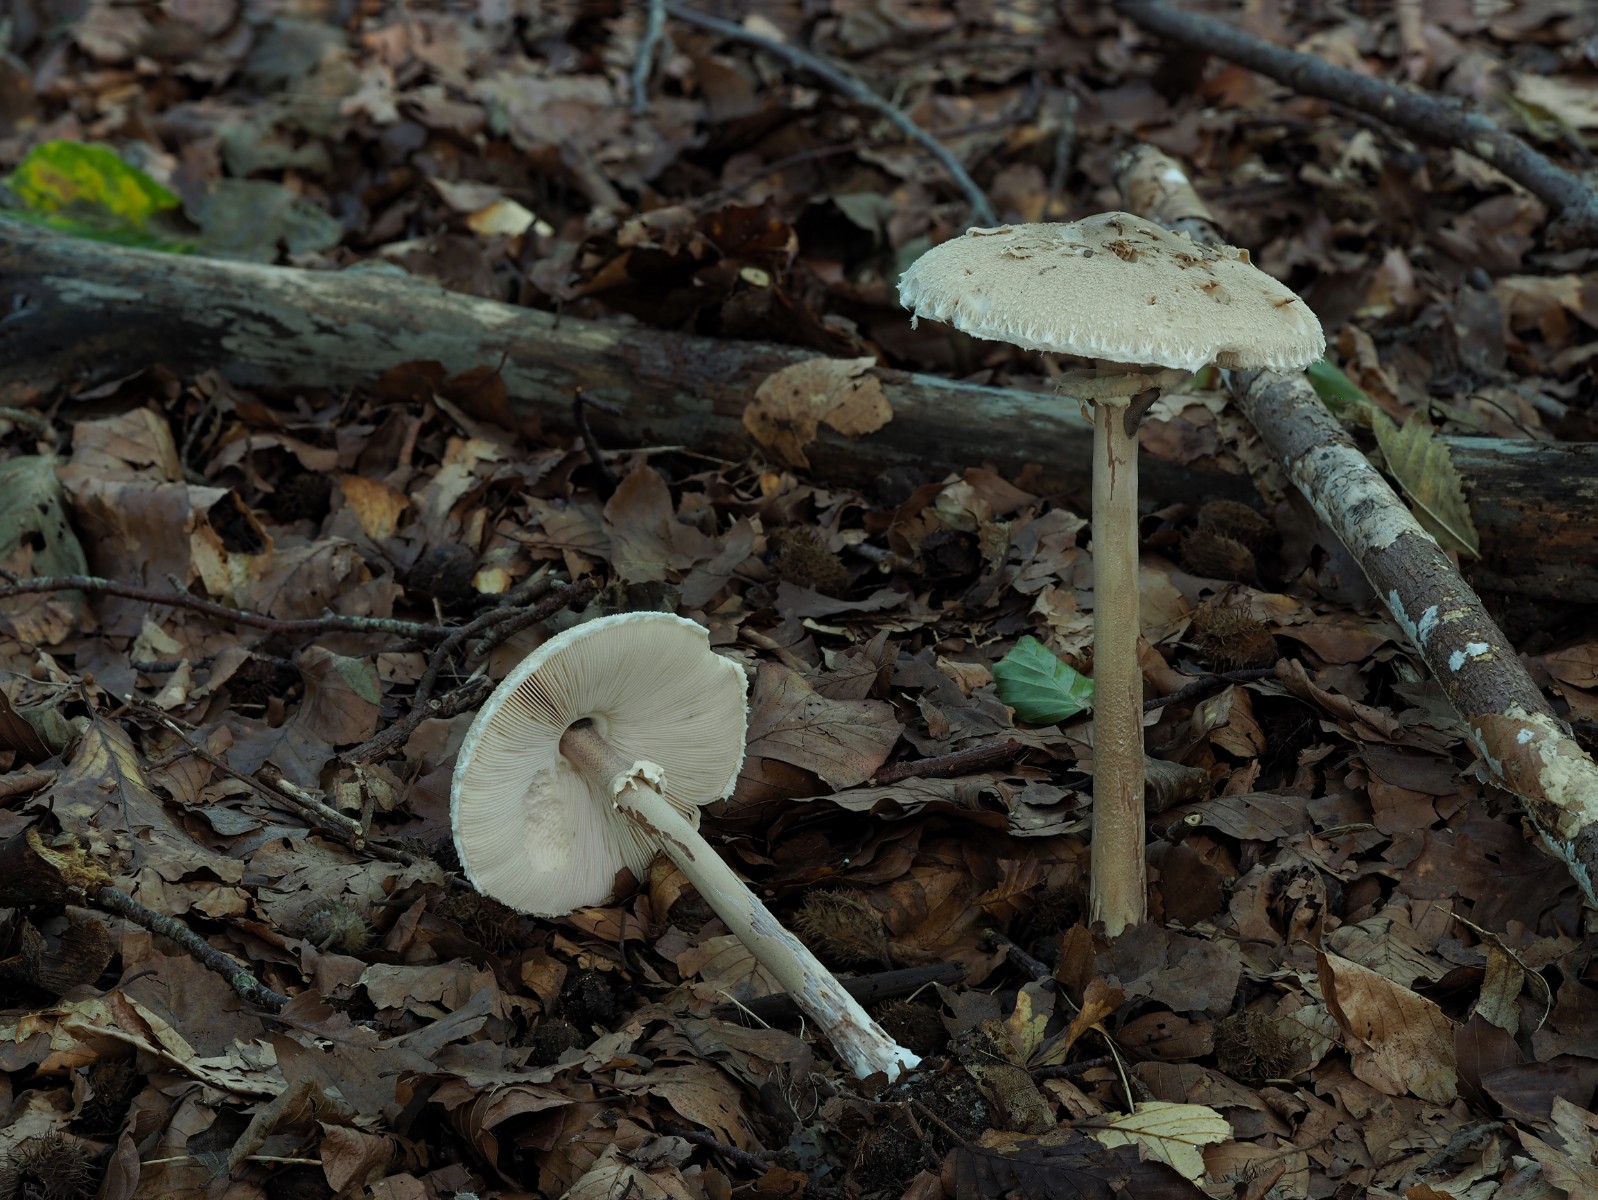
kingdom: Fungi
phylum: Basidiomycota
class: Agaricomycetes
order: Agaricales
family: Agaricaceae
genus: Macrolepiota
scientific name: Macrolepiota mastoidea
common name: puklet kæmpeparasolhat
